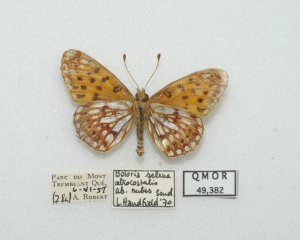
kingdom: Animalia
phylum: Arthropoda
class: Insecta
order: Lepidoptera
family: Nymphalidae
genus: Boloria
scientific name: Boloria selene
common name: Silver-bordered Fritillary
